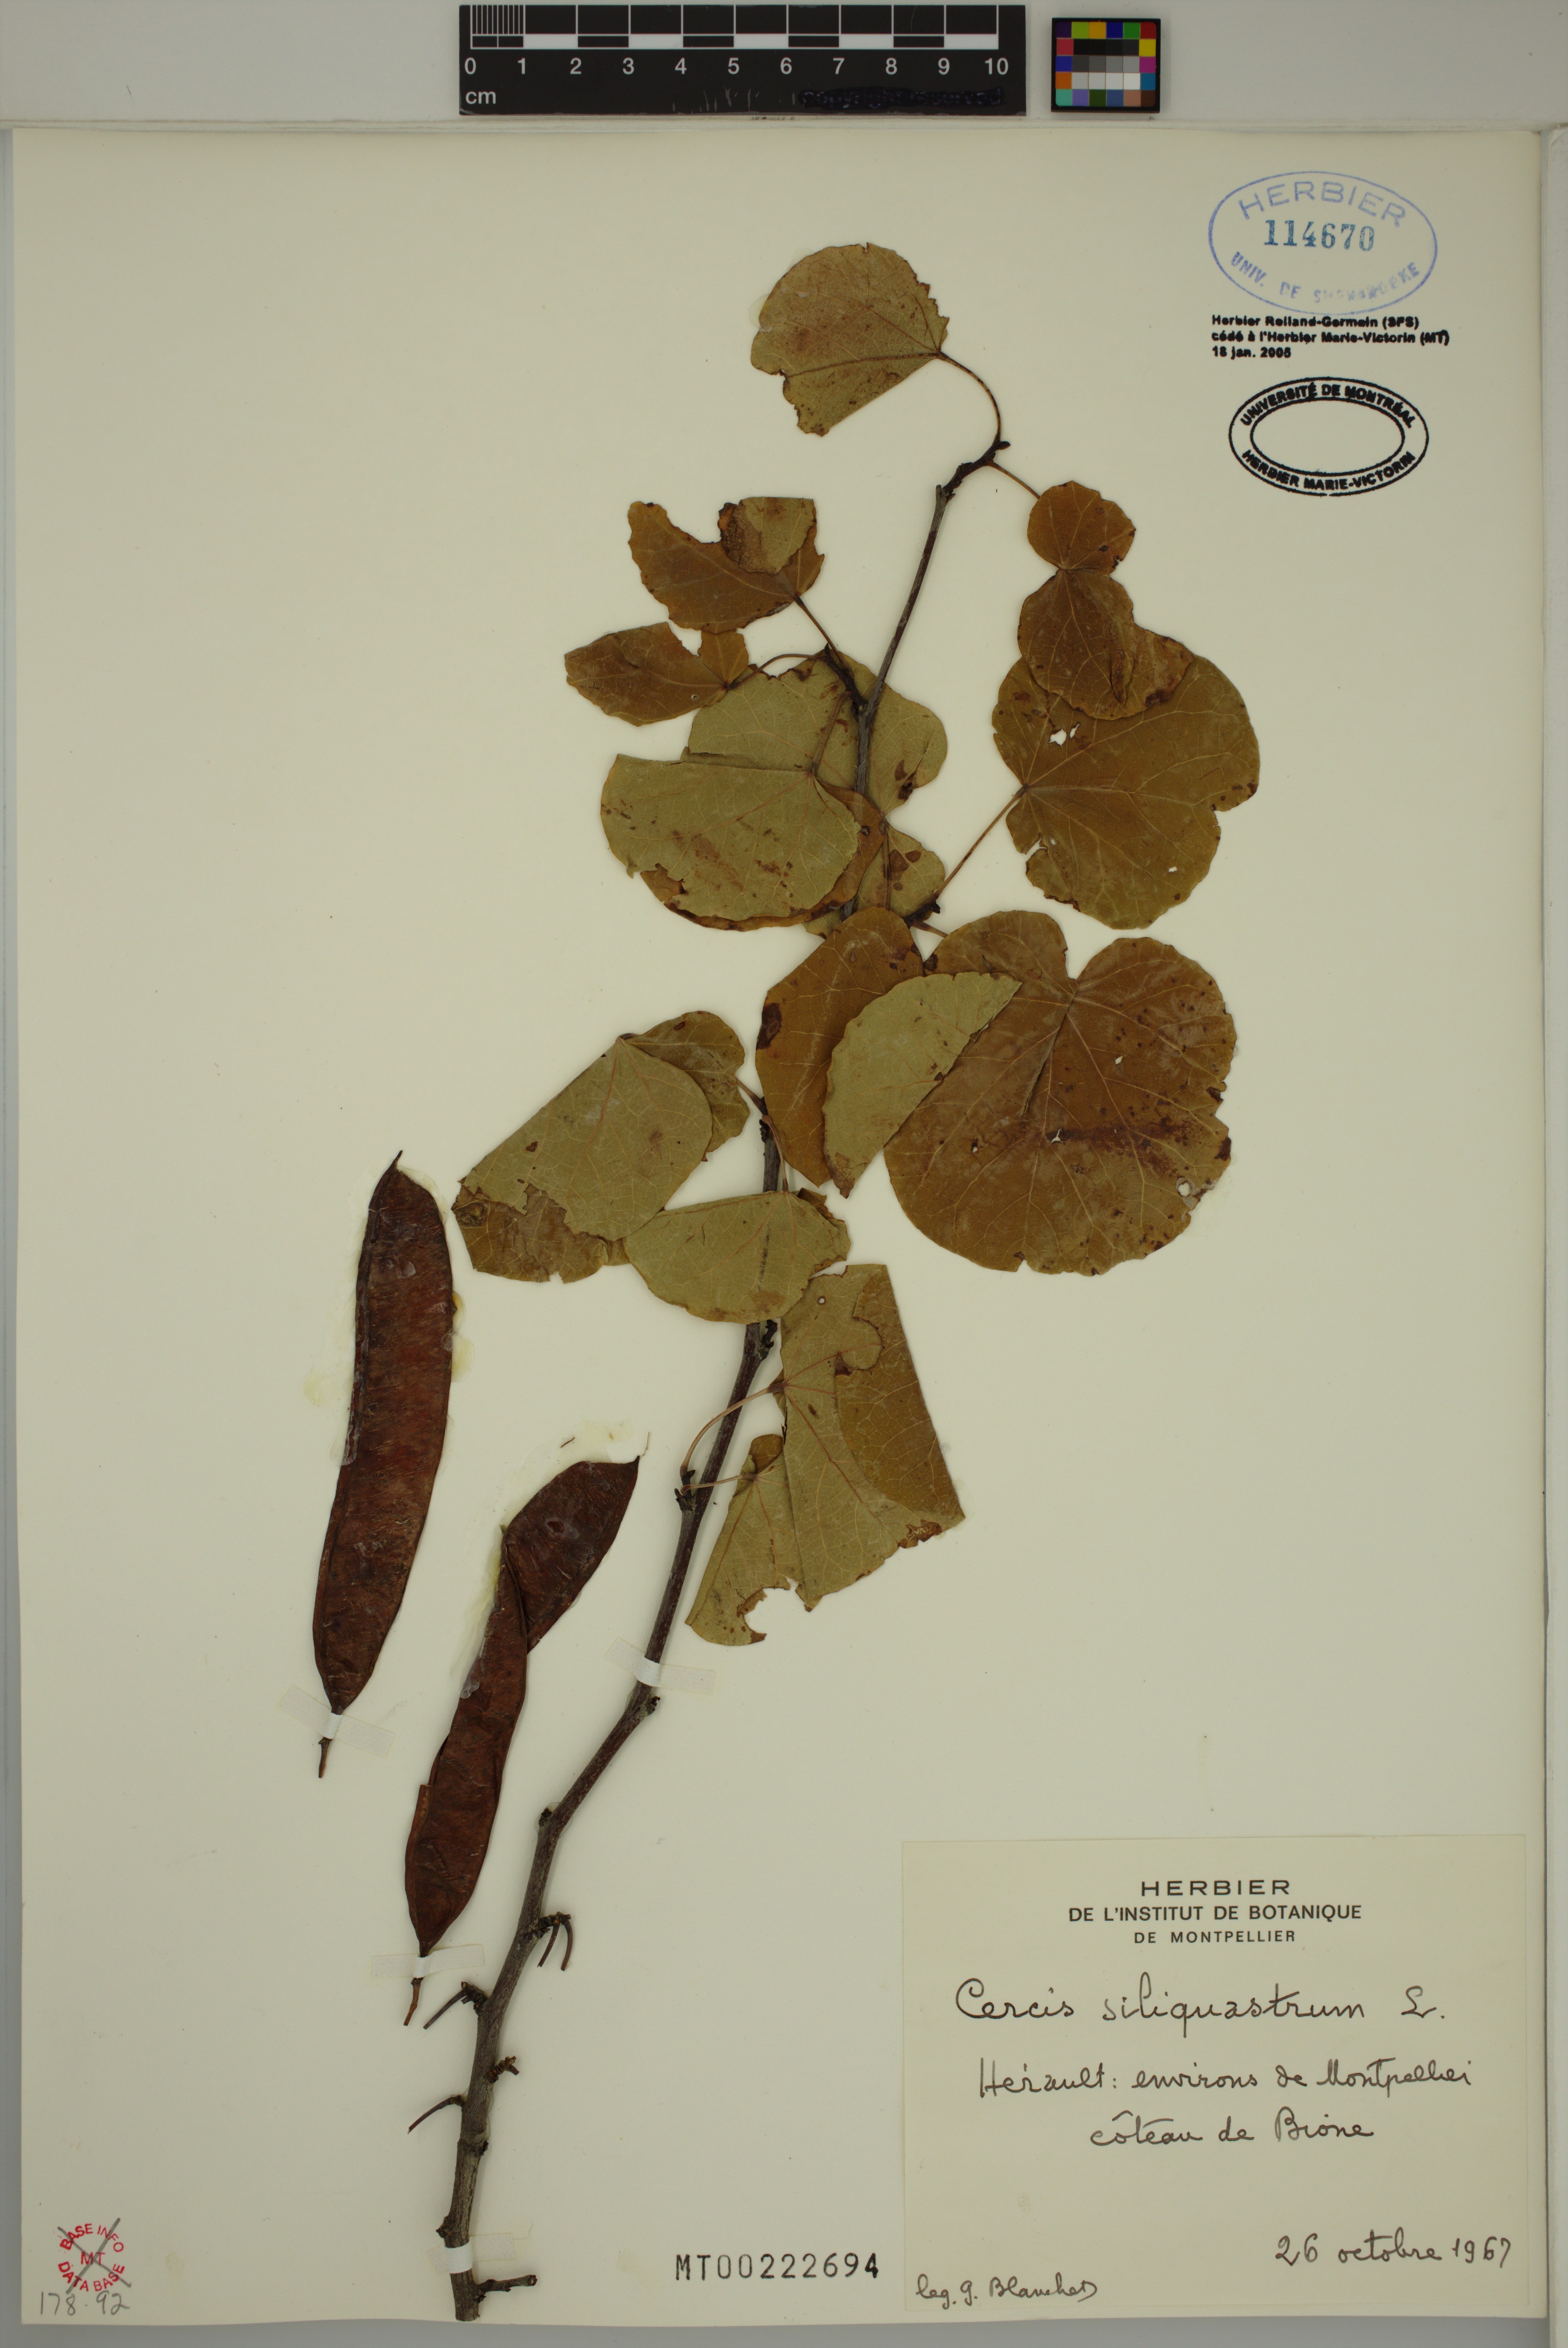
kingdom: Plantae
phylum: Tracheophyta
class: Magnoliopsida
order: Fabales
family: Fabaceae
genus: Cercis
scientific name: Cercis siliquastrum
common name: Judas tree
